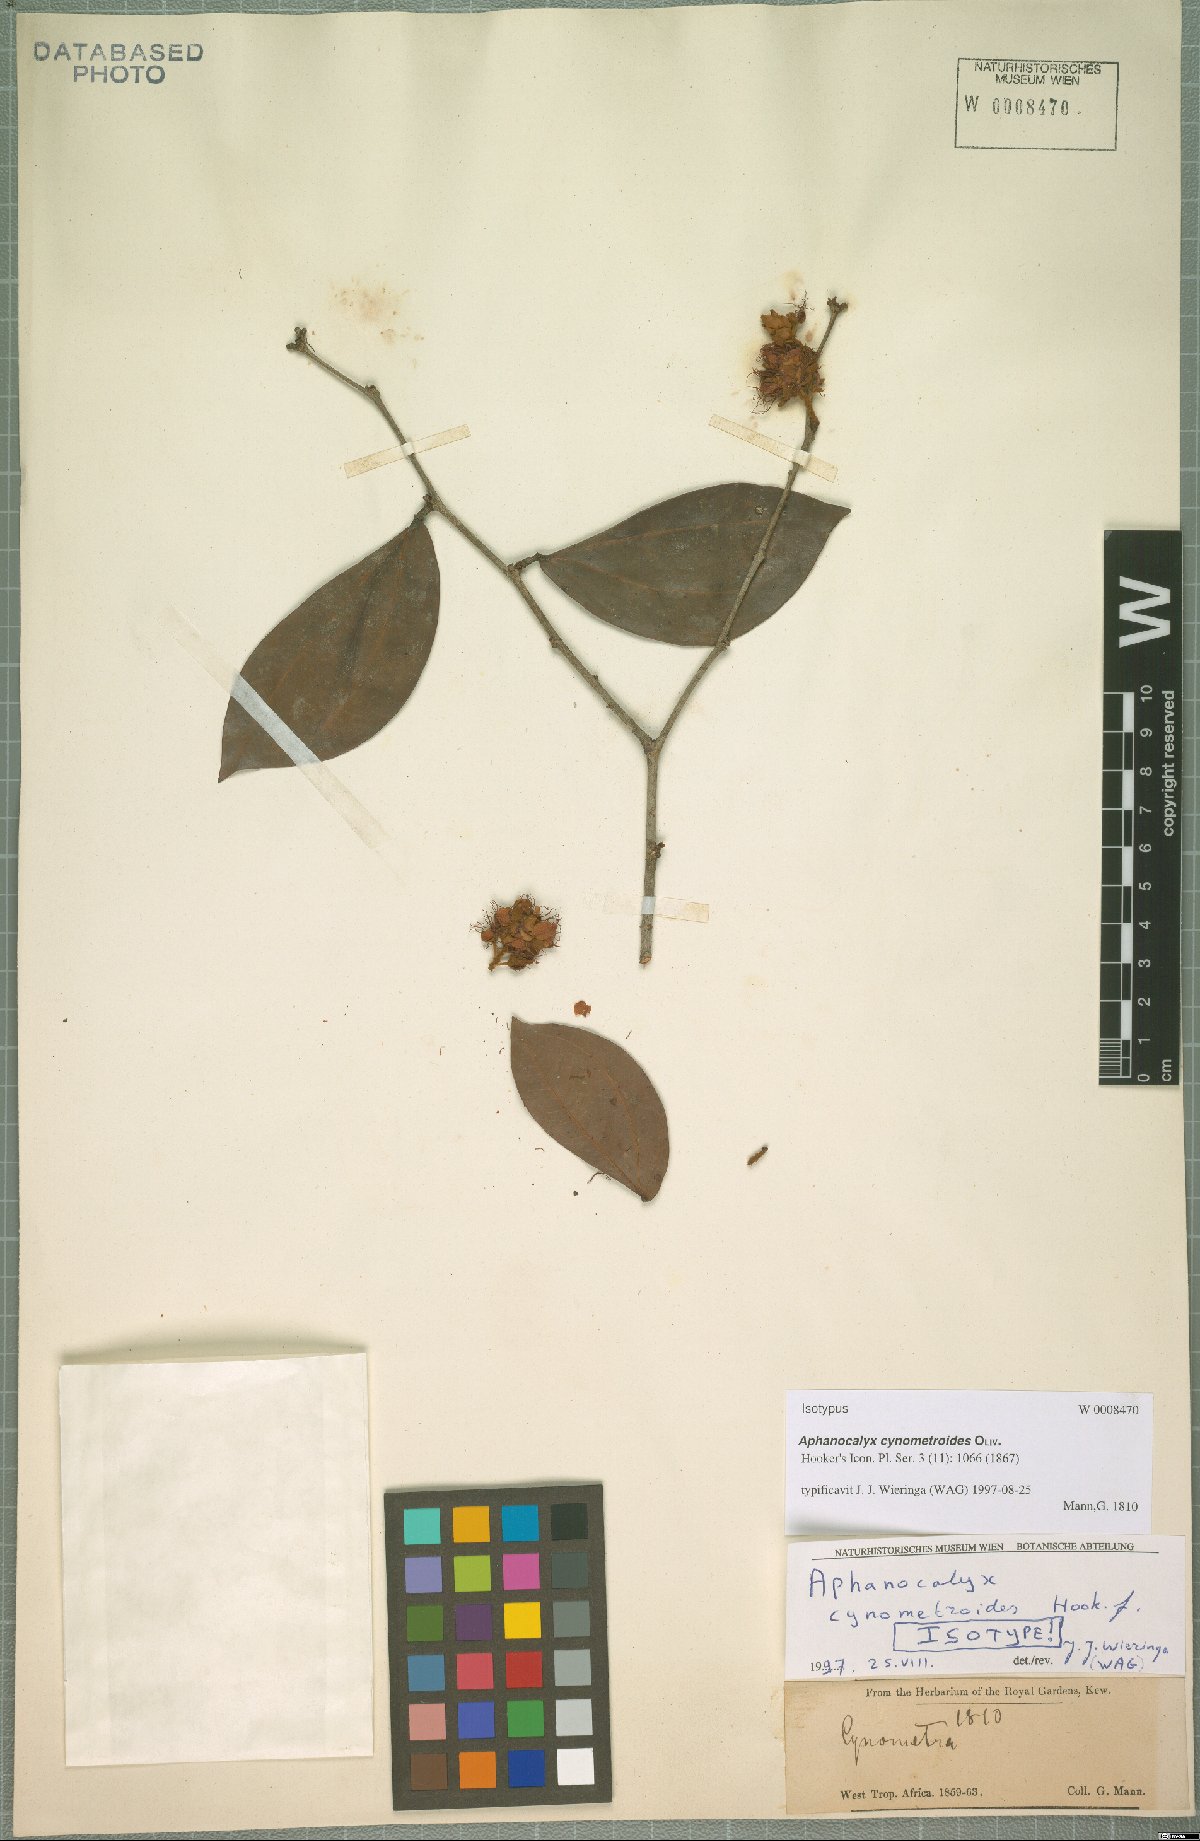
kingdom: Plantae
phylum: Tracheophyta
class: Magnoliopsida
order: Fabales
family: Fabaceae
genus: Aphanocalyx
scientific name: Aphanocalyx cynometroides
